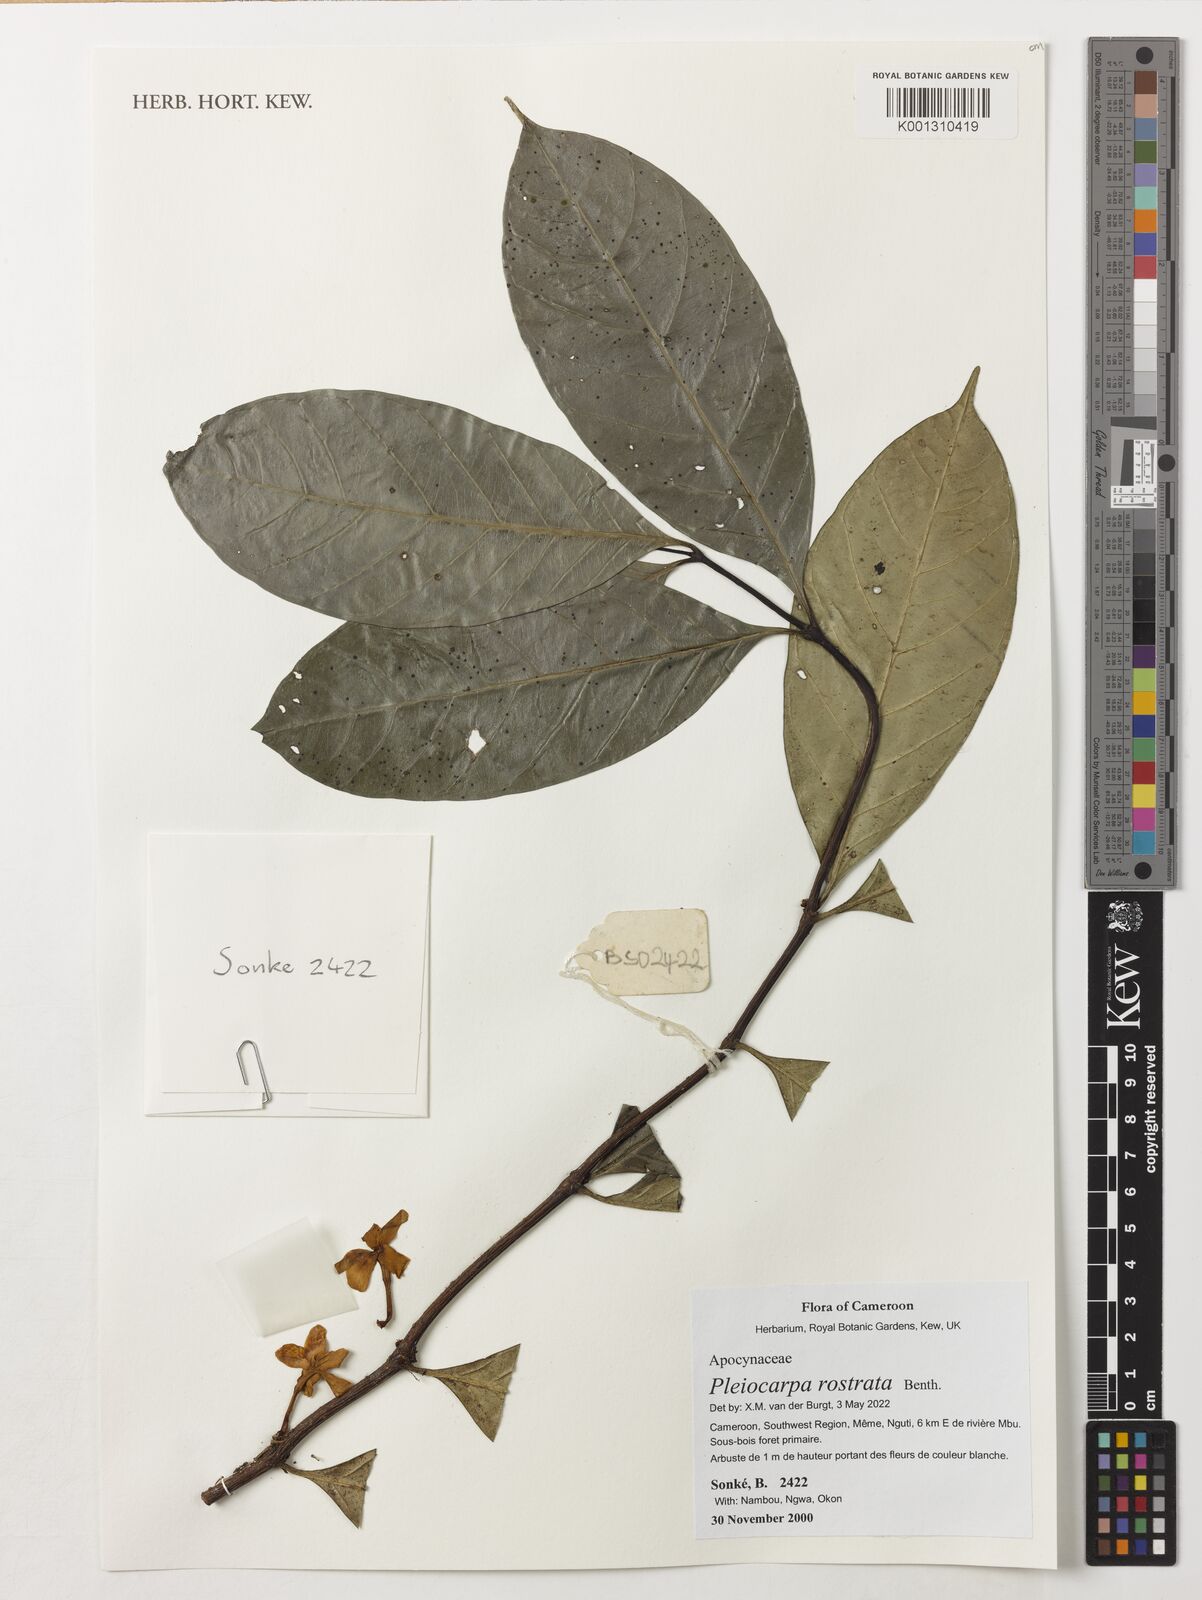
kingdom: Plantae
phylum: Tracheophyta
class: Magnoliopsida
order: Gentianales
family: Apocynaceae
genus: Pleiocarpa
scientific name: Pleiocarpa rostrata
